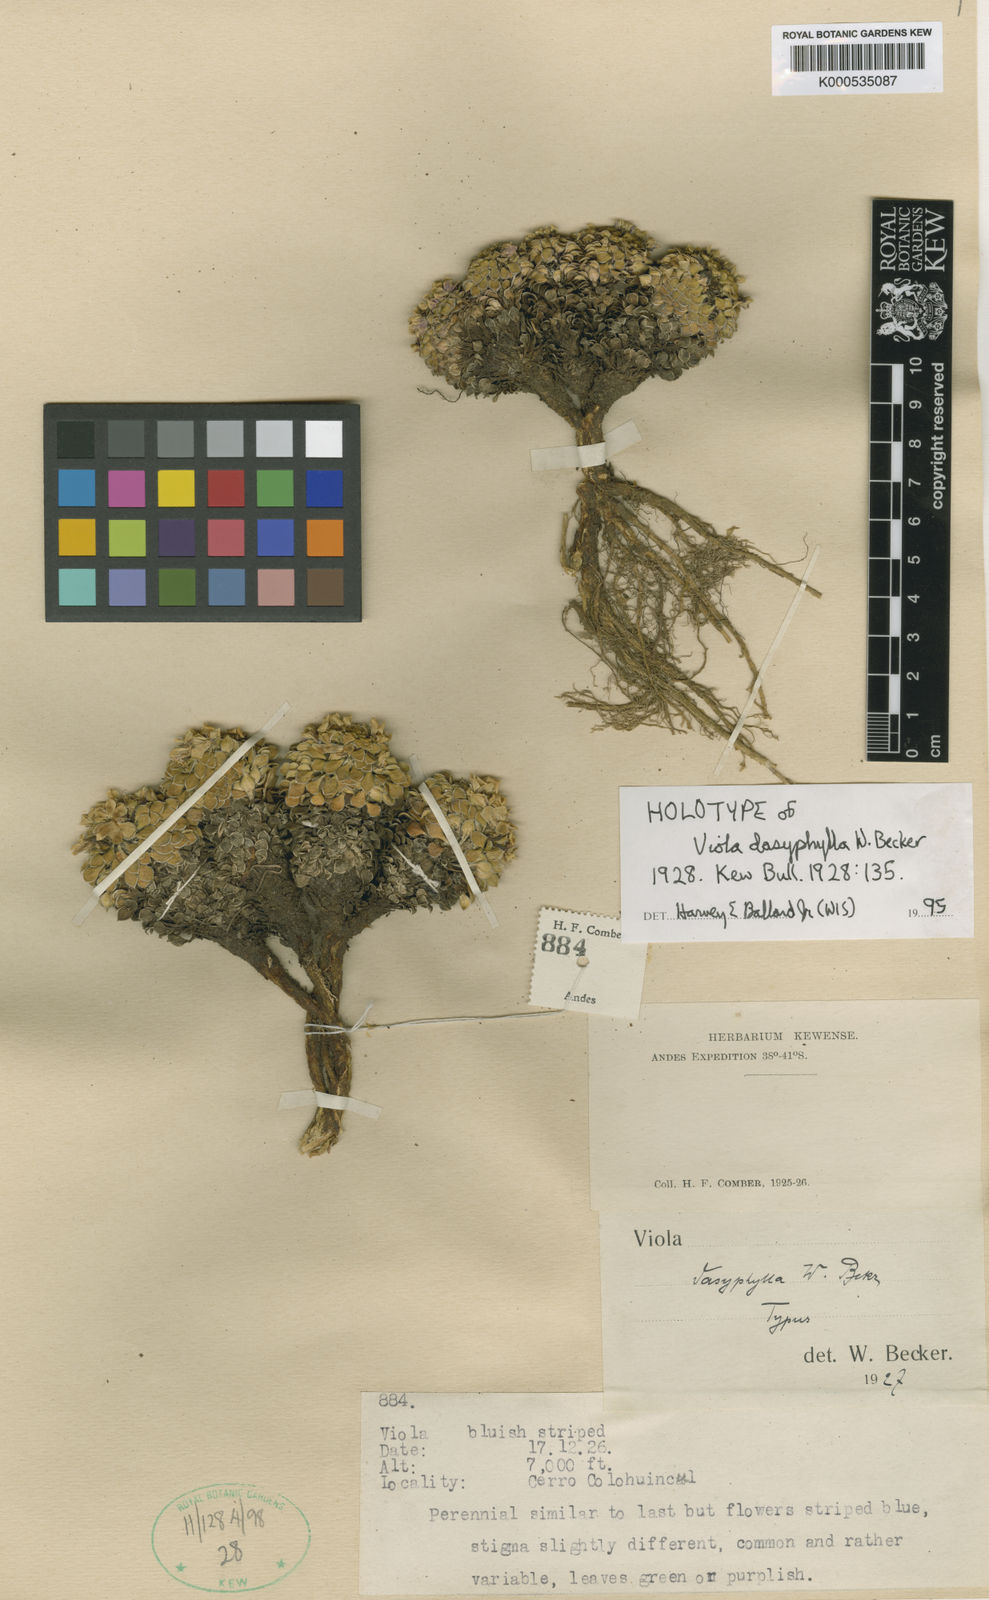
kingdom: Plantae
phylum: Tracheophyta
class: Magnoliopsida
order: Malpighiales
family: Violaceae
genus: Viola
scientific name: Viola dasyphylla
